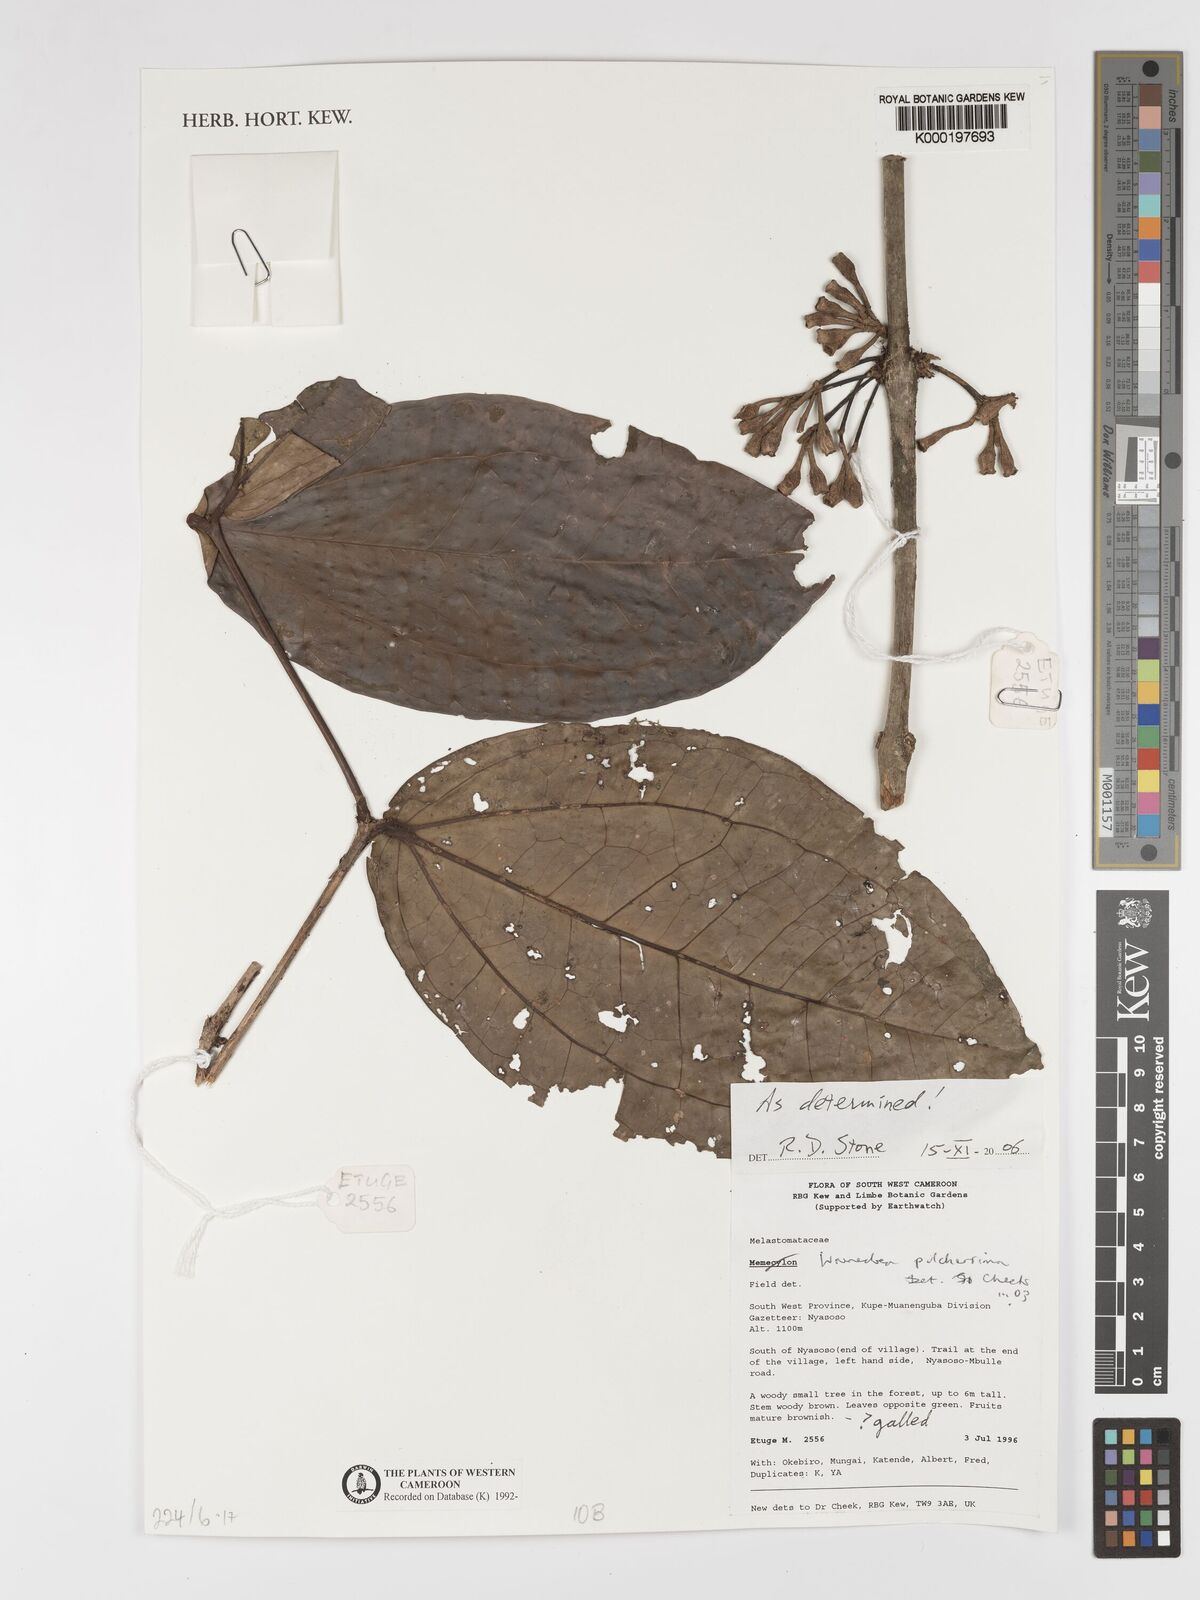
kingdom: Plantae
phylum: Tracheophyta
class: Magnoliopsida
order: Myrtales
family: Melastomataceae
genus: Warneckea
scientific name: Warneckea
